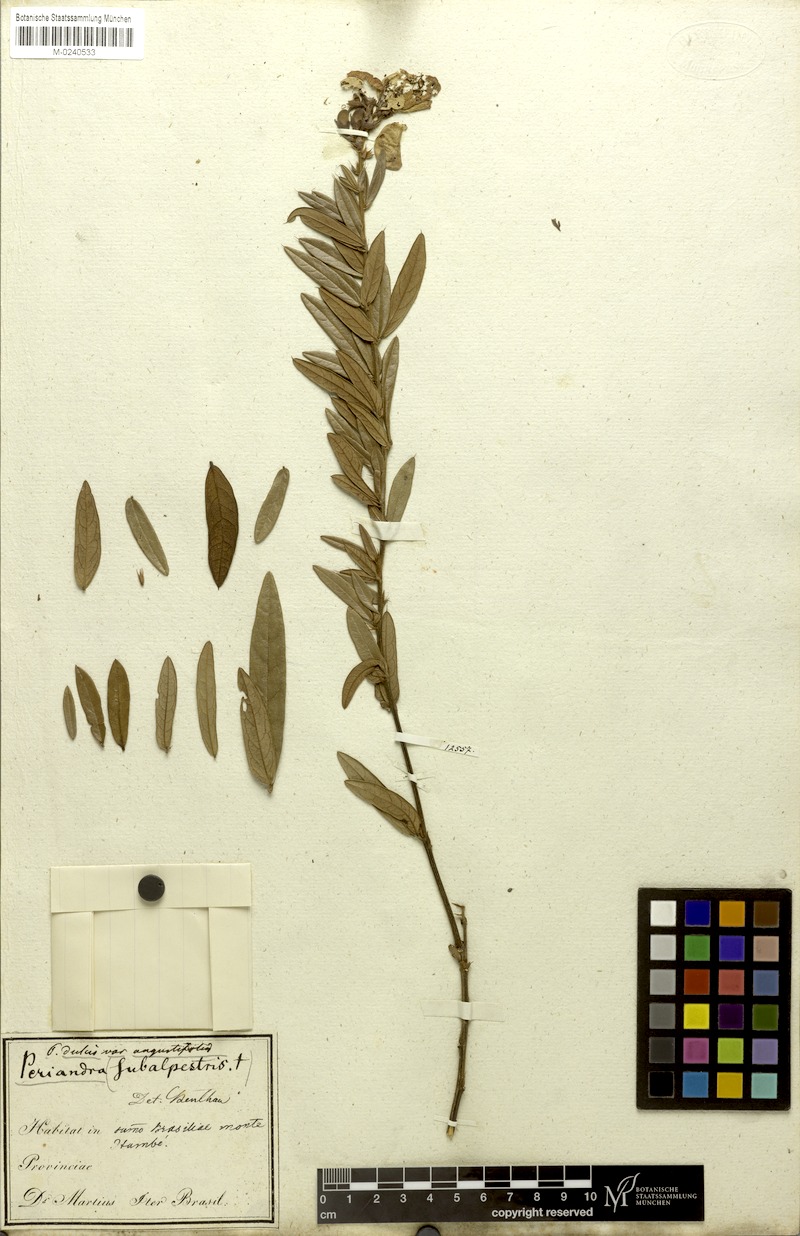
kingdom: Plantae
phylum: Tracheophyta
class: Magnoliopsida
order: Fabales
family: Fabaceae
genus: Periandra
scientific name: Periandra mediterranea
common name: Brazilian licorice
